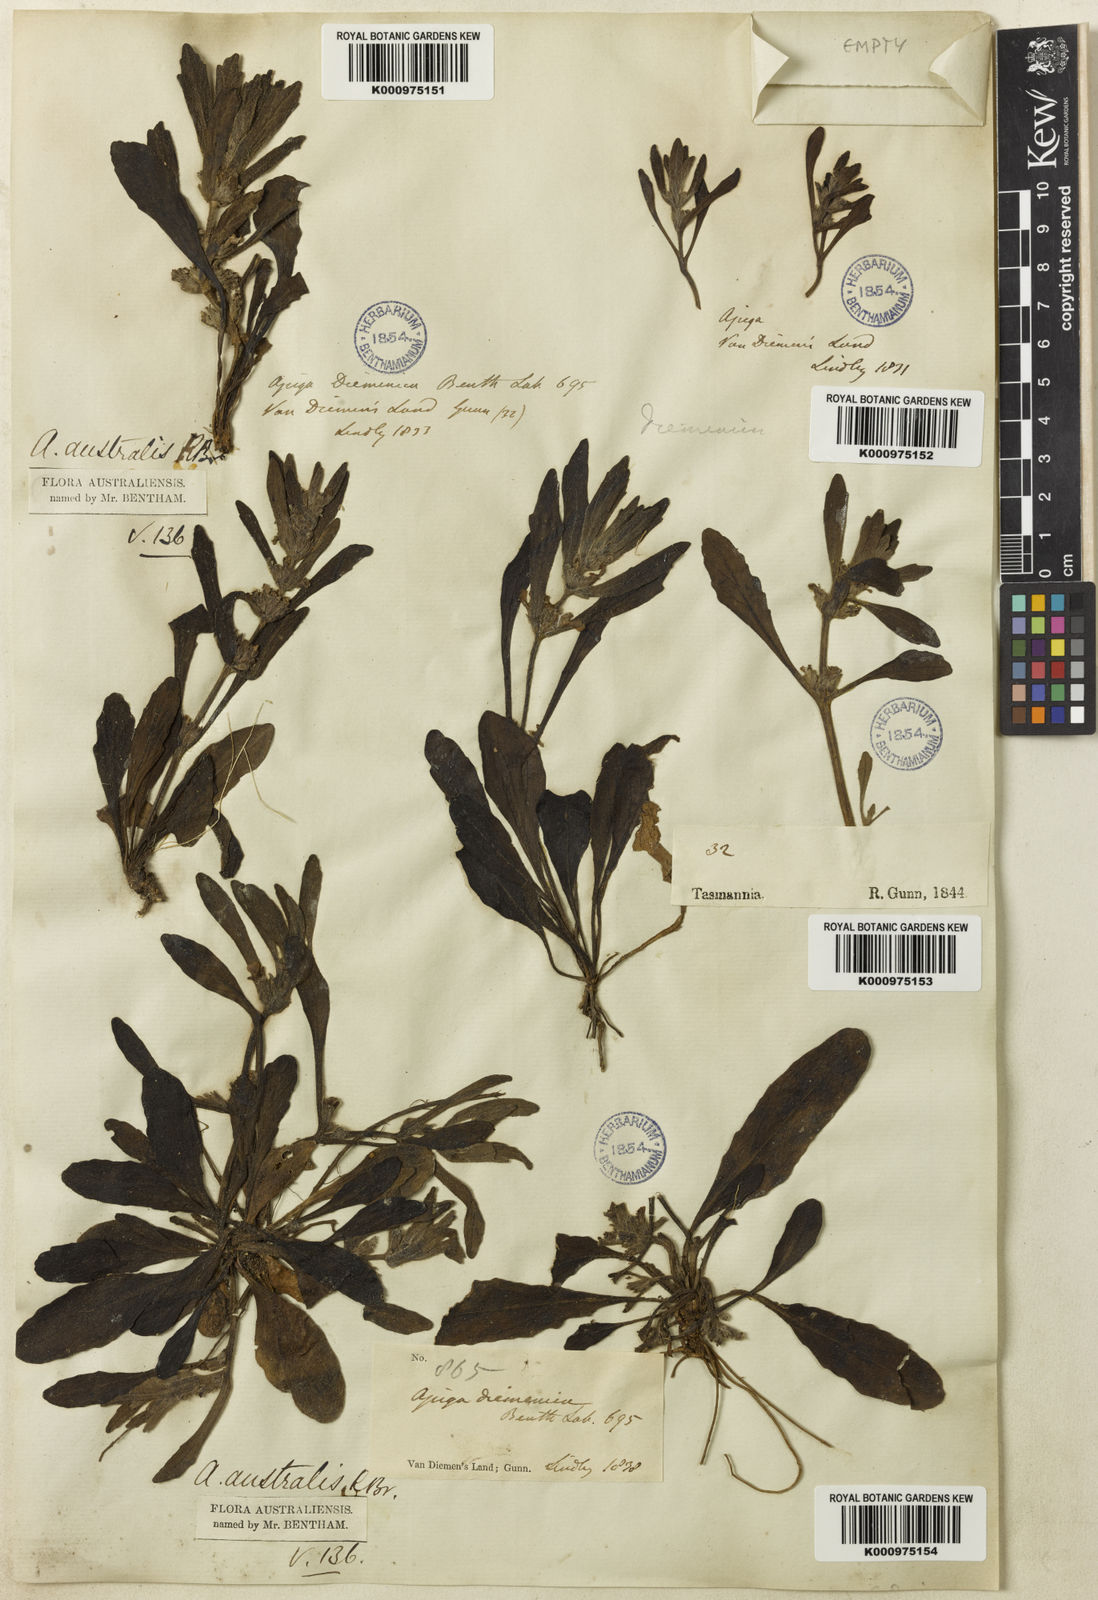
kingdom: Plantae
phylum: Tracheophyta
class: Magnoliopsida
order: Lamiales
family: Lamiaceae
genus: Ajuga
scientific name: Ajuga australis
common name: Australian bugle
